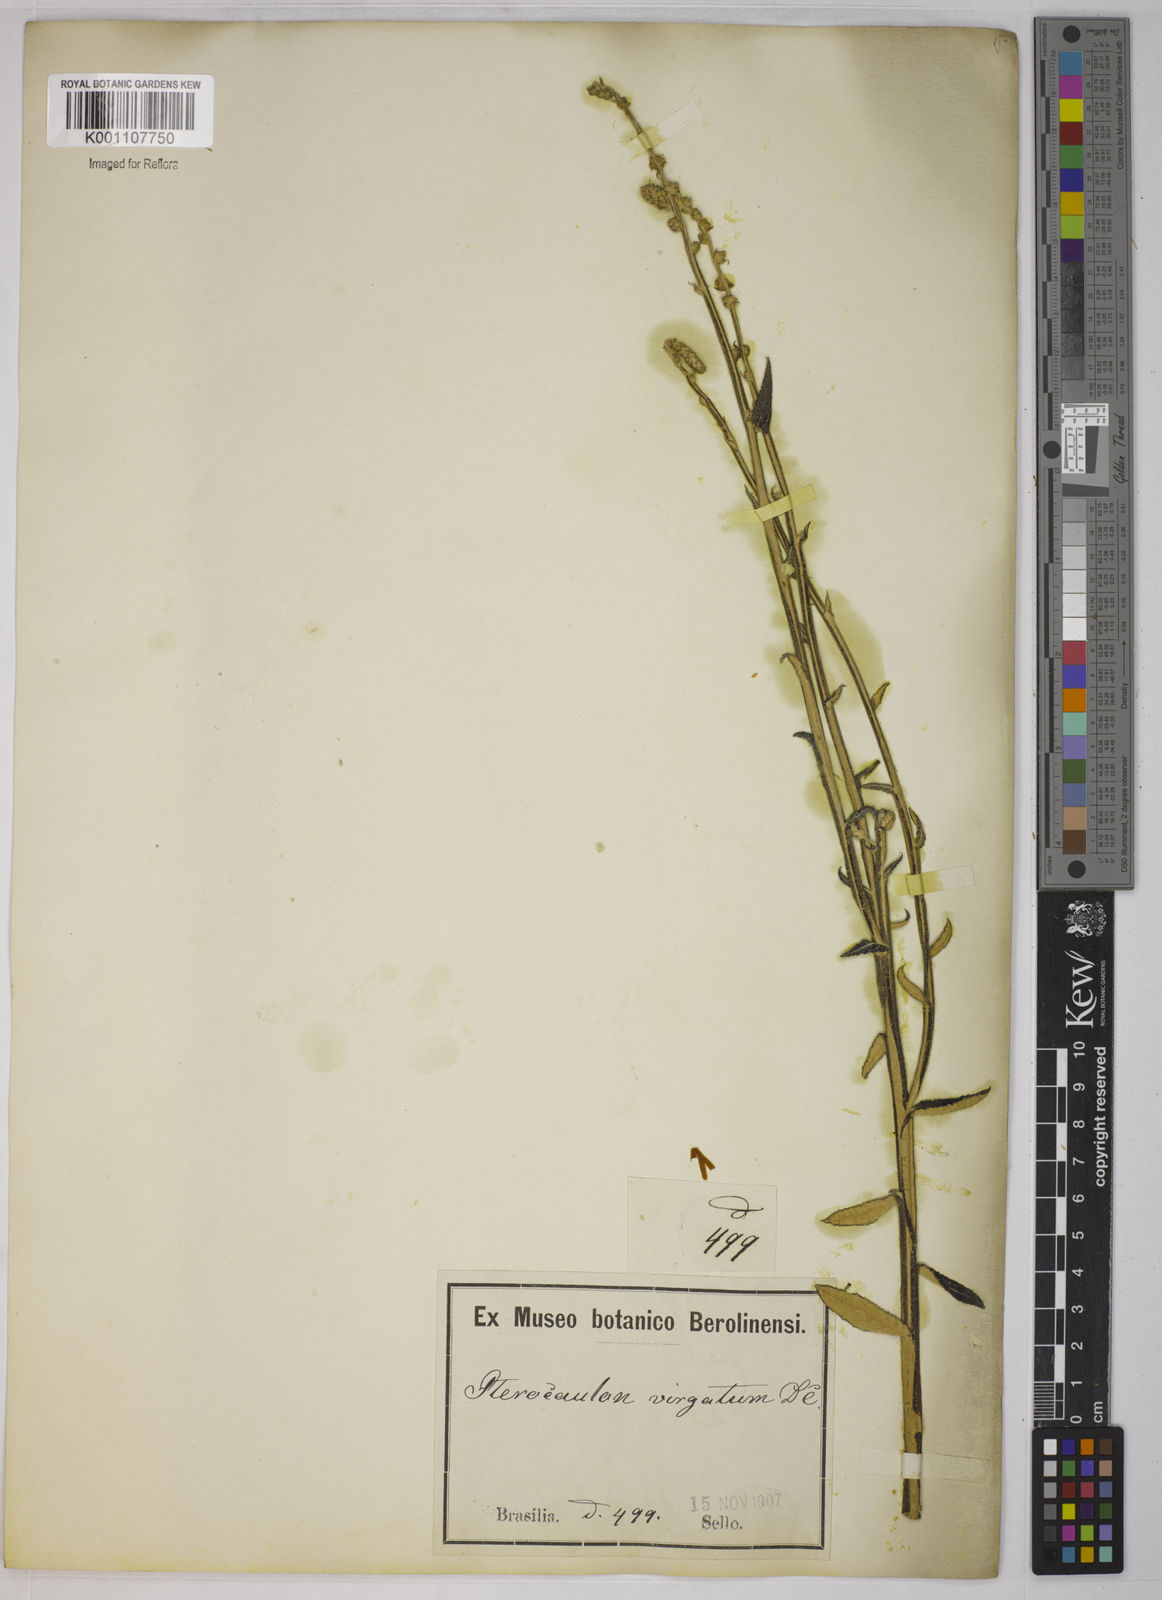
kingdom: Plantae
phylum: Tracheophyta
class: Magnoliopsida
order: Asterales
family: Asteraceae
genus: Pterocaulon
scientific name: Pterocaulon alopecuroides
